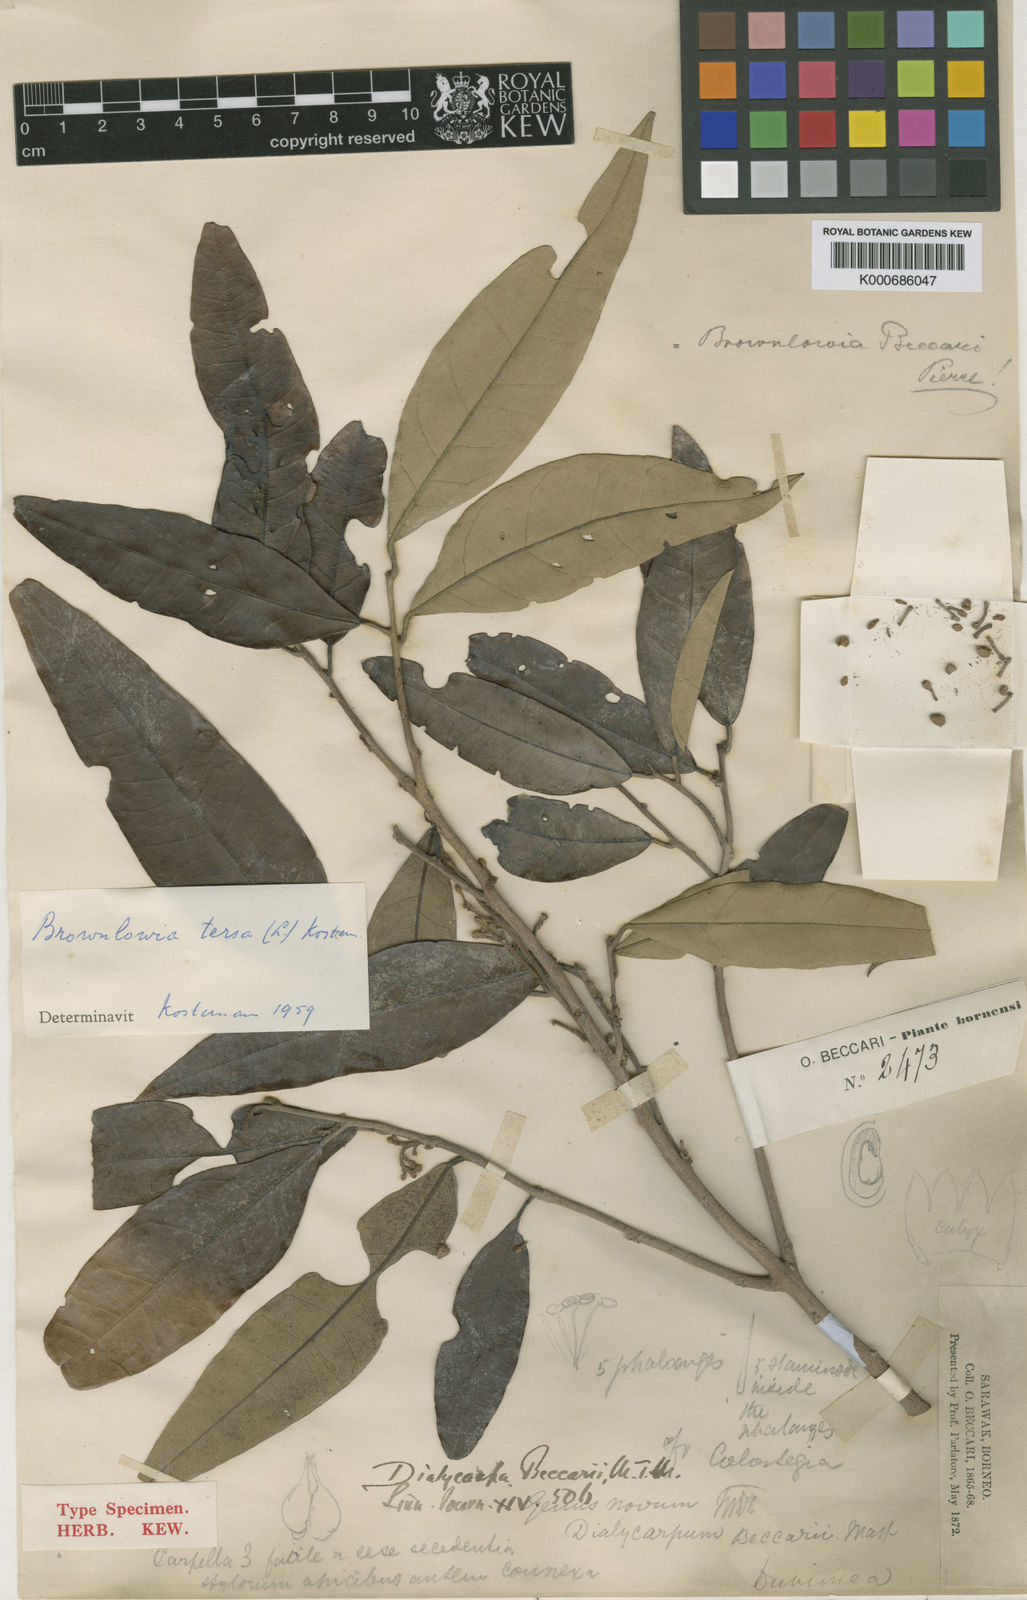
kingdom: Plantae
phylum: Tracheophyta
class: Magnoliopsida
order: Malvales
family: Malvaceae
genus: Brownlowia
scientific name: Brownlowia tersa
